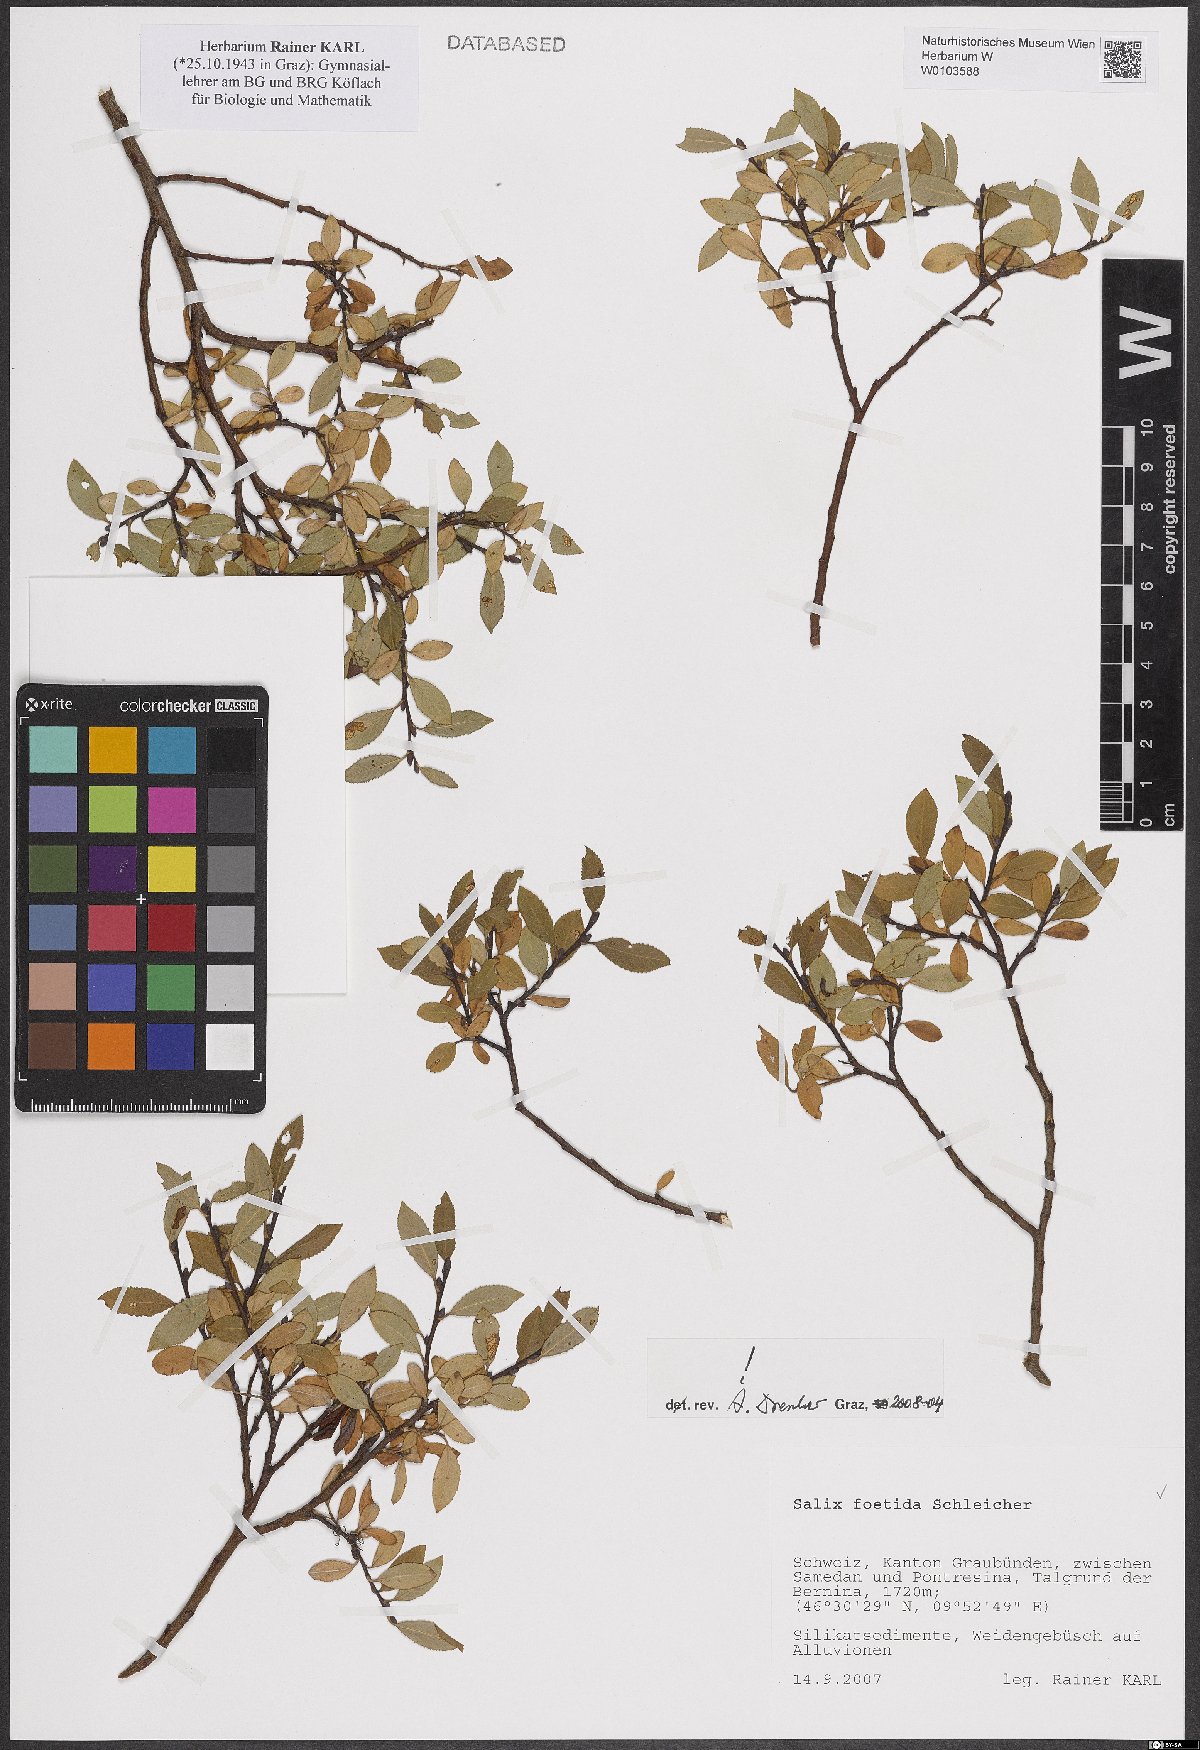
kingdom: Plantae
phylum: Tracheophyta
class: Magnoliopsida
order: Malpighiales
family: Salicaceae
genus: Salix
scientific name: Salix foetida
